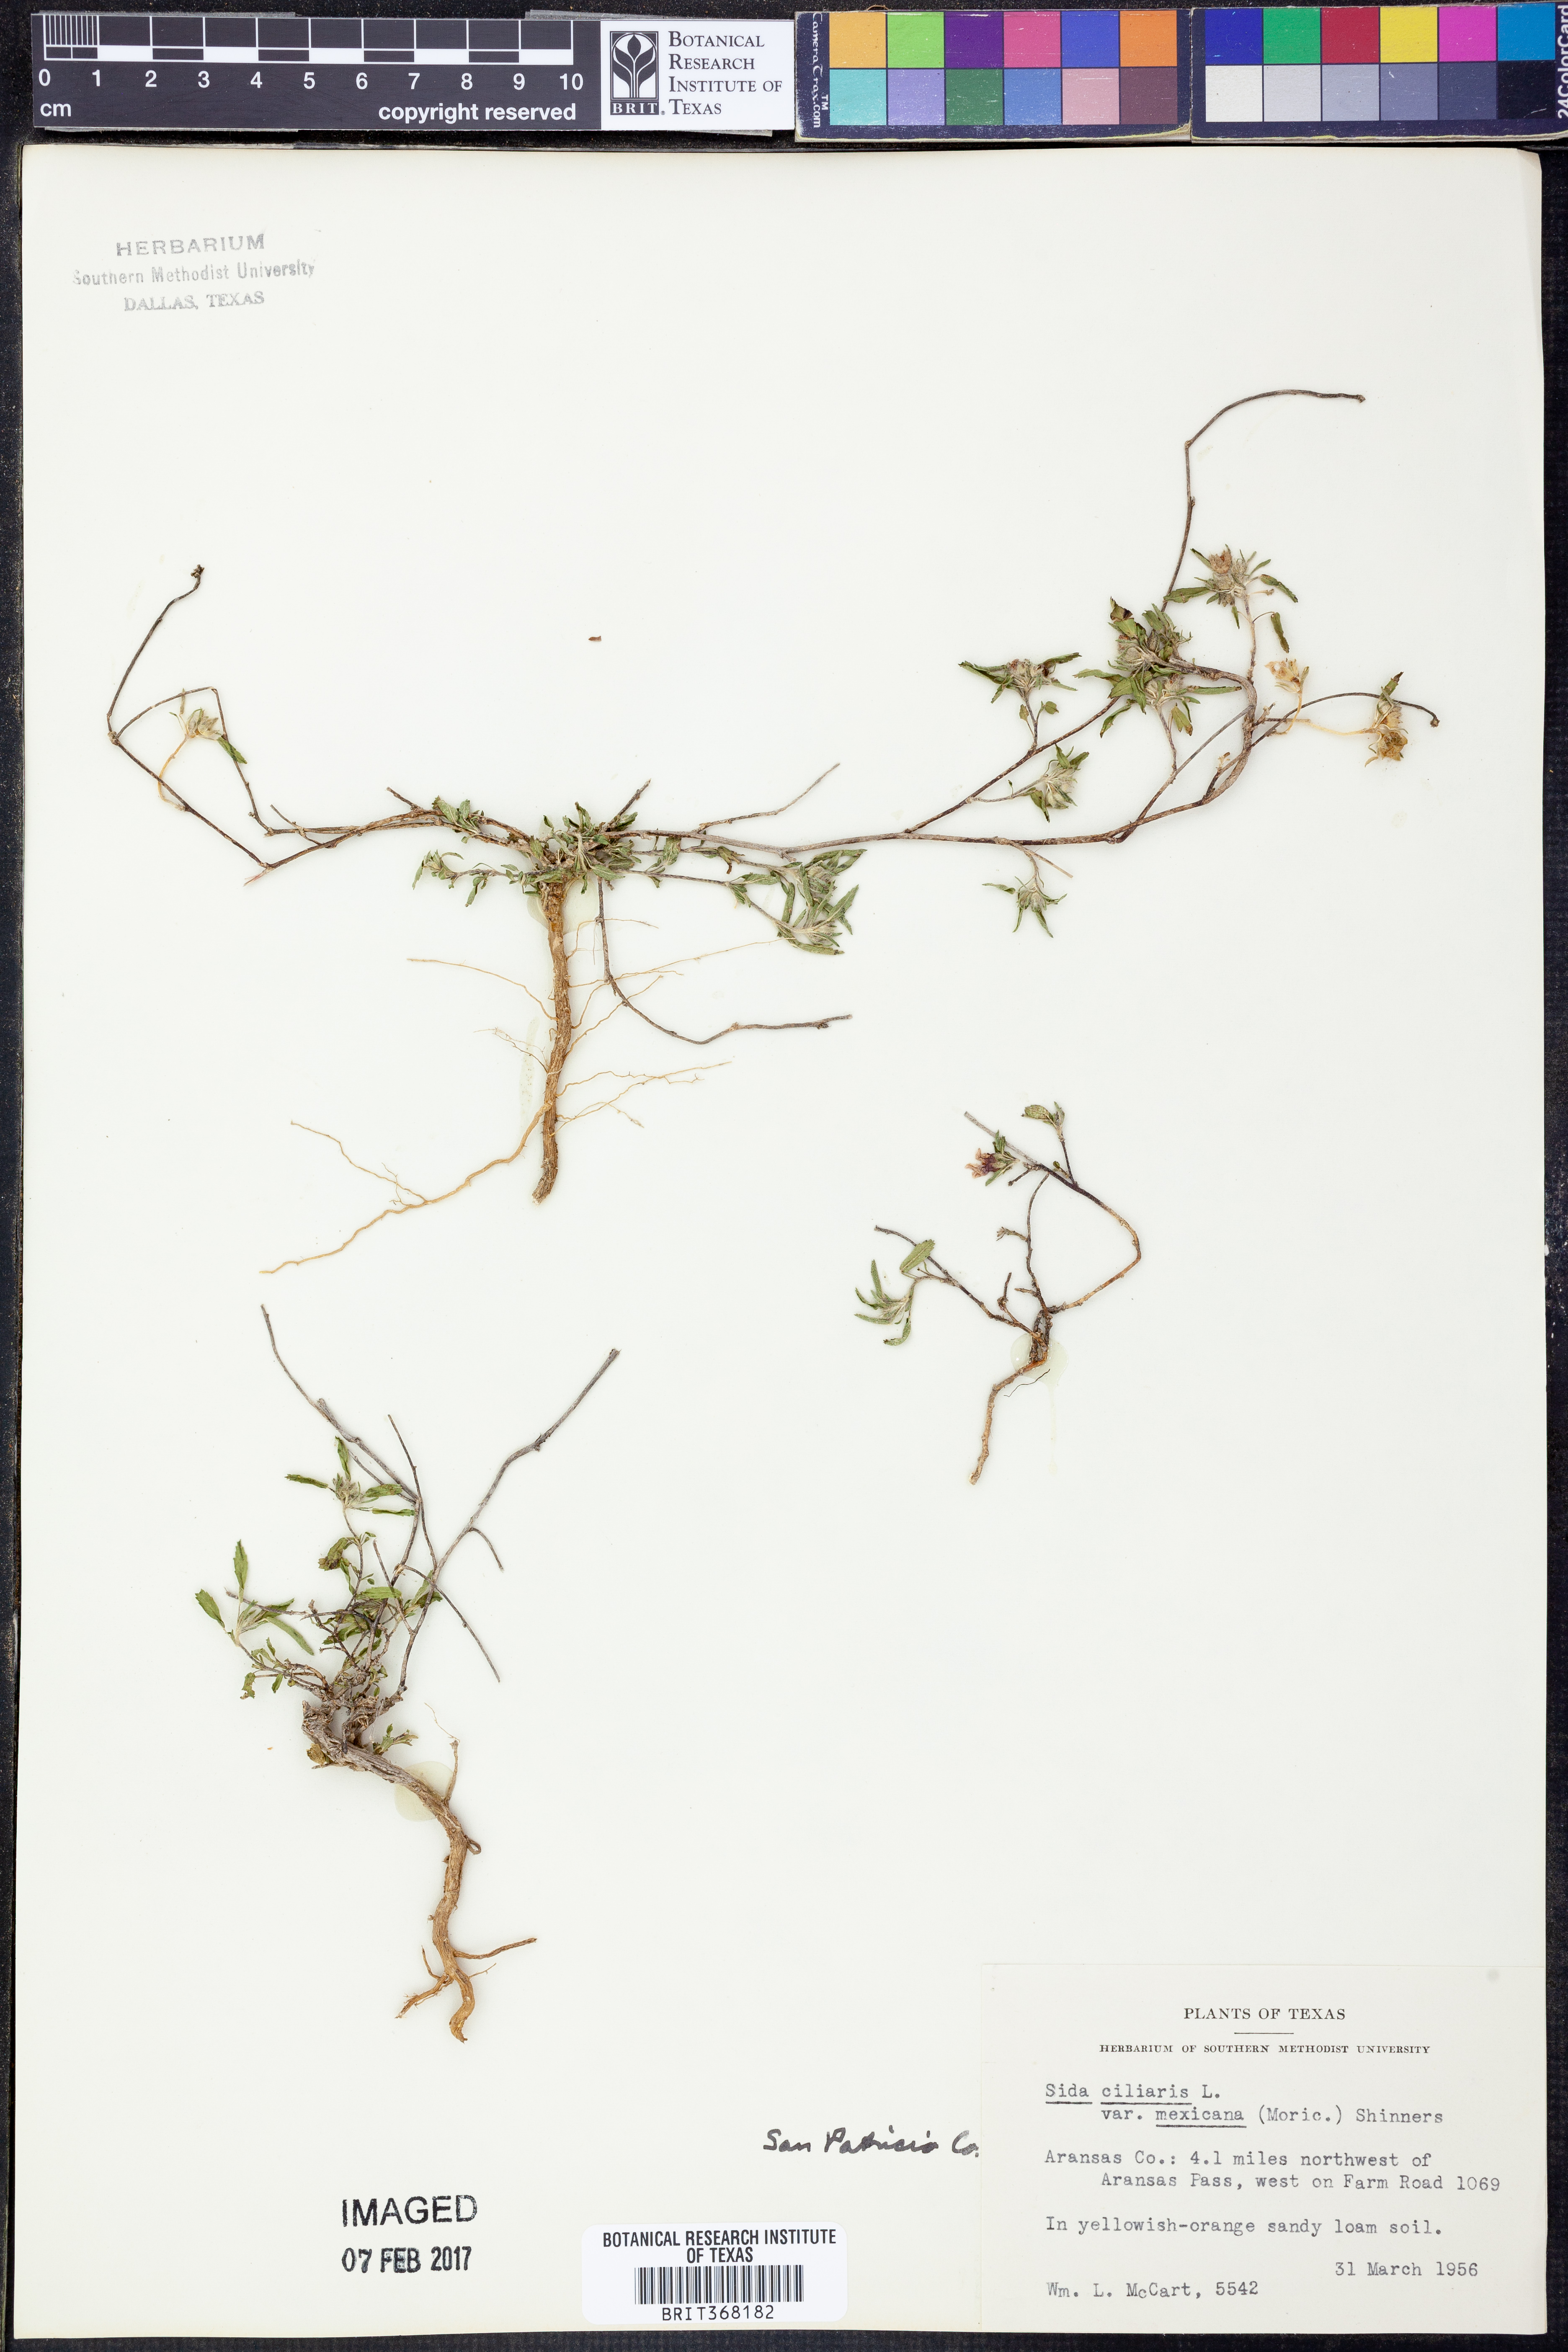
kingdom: Plantae
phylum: Tracheophyta
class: Magnoliopsida
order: Malvales
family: Malvaceae
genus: Sida
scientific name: Sida ciliaris
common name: Bracted fanpetals
